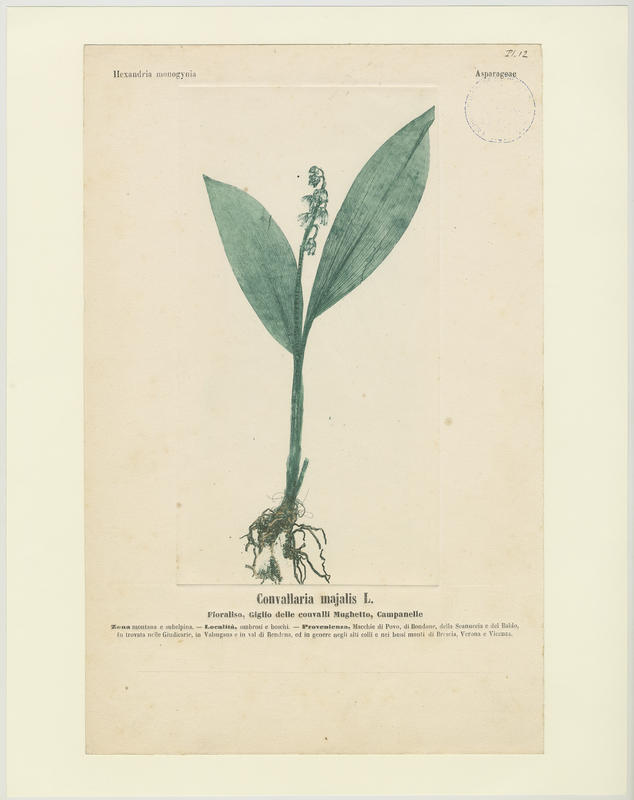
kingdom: Plantae
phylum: Tracheophyta
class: Liliopsida
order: Asparagales
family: Asparagaceae
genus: Convallaria
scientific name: Convallaria majalis
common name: Lily-of-the-valley
